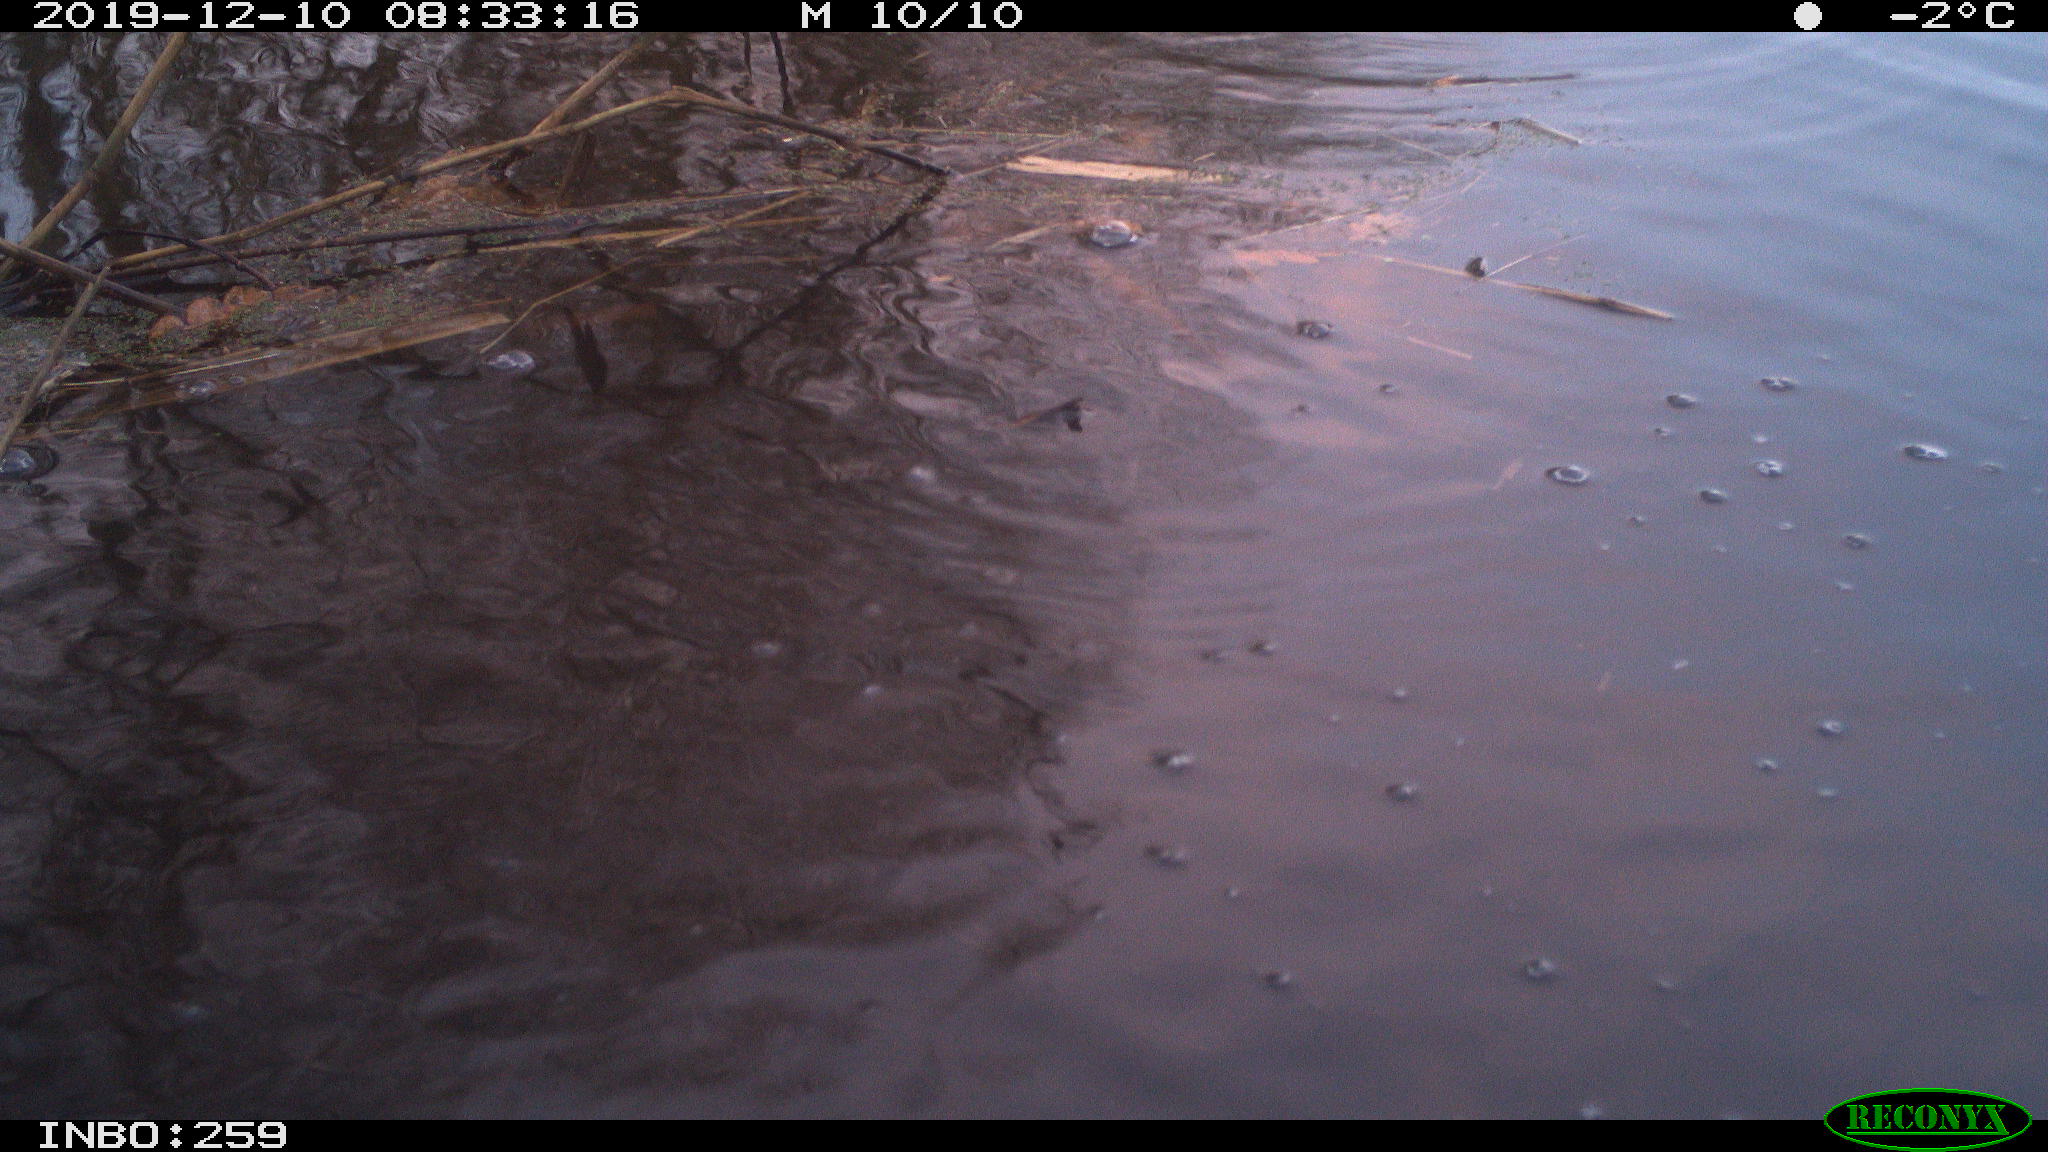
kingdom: Animalia
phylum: Chordata
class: Aves
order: Gruiformes
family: Rallidae
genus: Gallinula
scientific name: Gallinula chloropus
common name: Common moorhen
